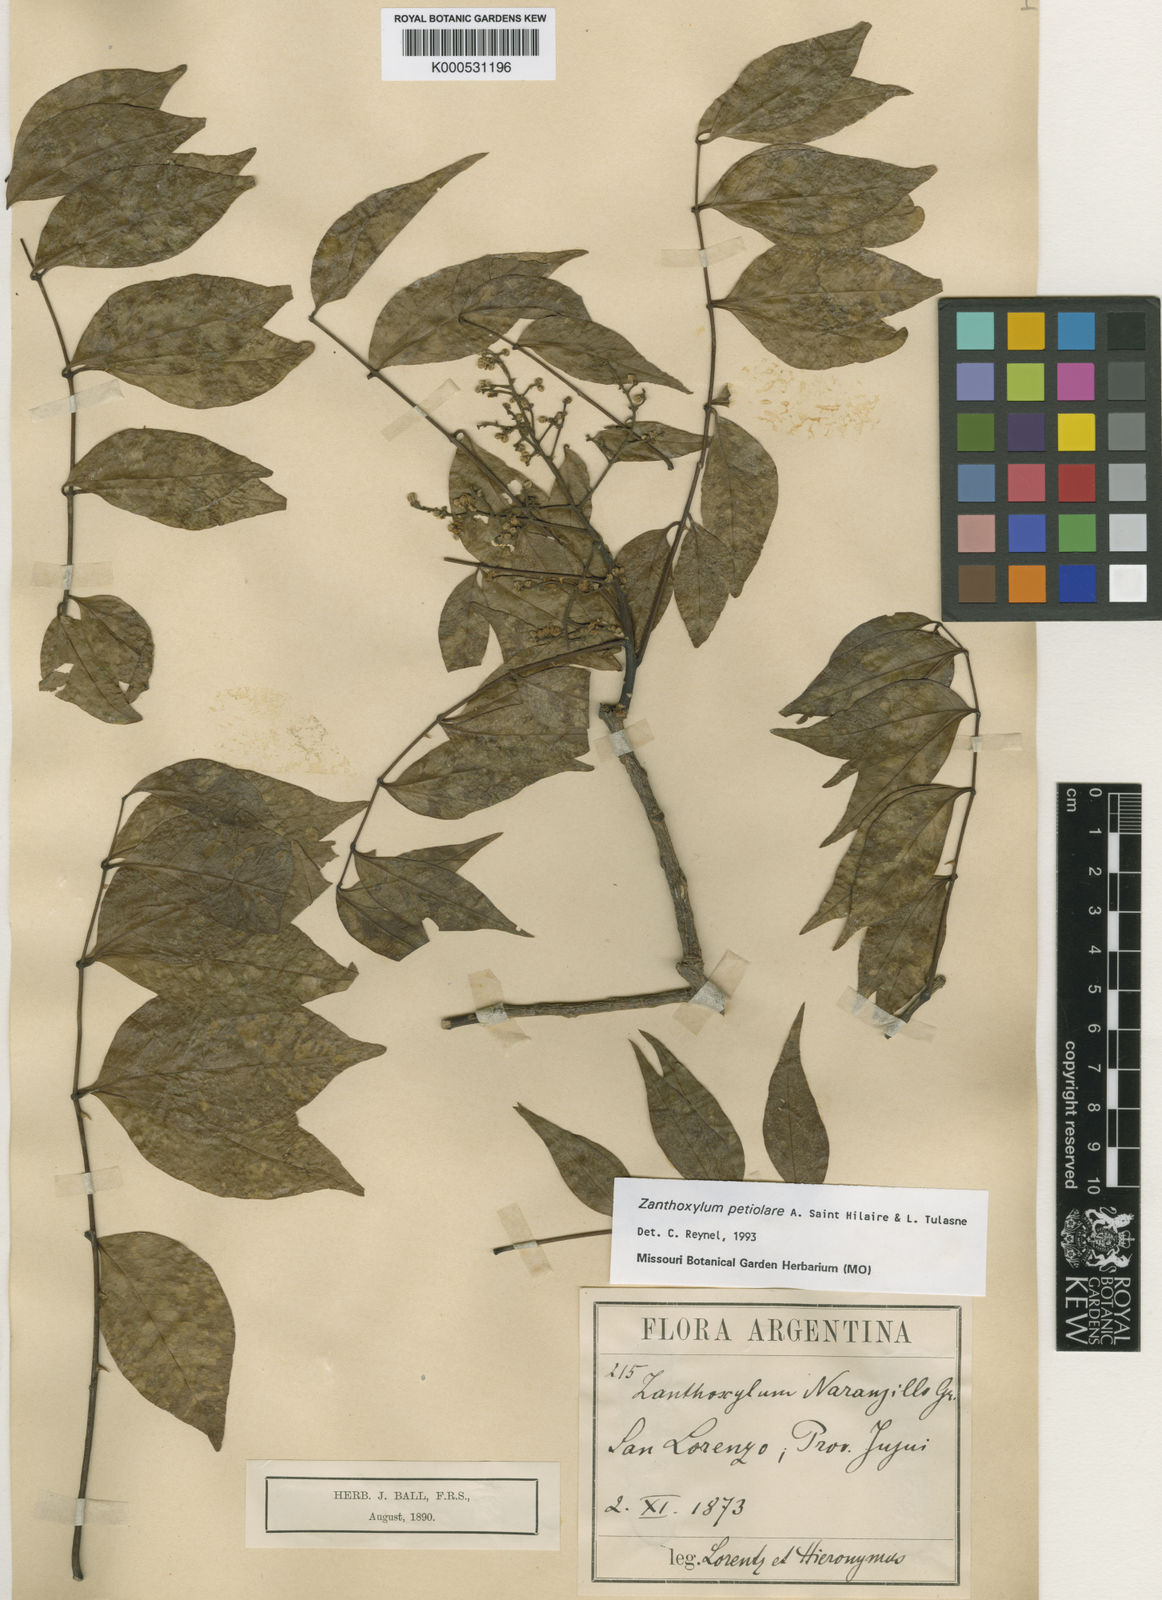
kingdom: Plantae
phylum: Tracheophyta
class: Magnoliopsida
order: Sapindales
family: Rutaceae
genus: Zanthoxylum
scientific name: Zanthoxylum petiolare
